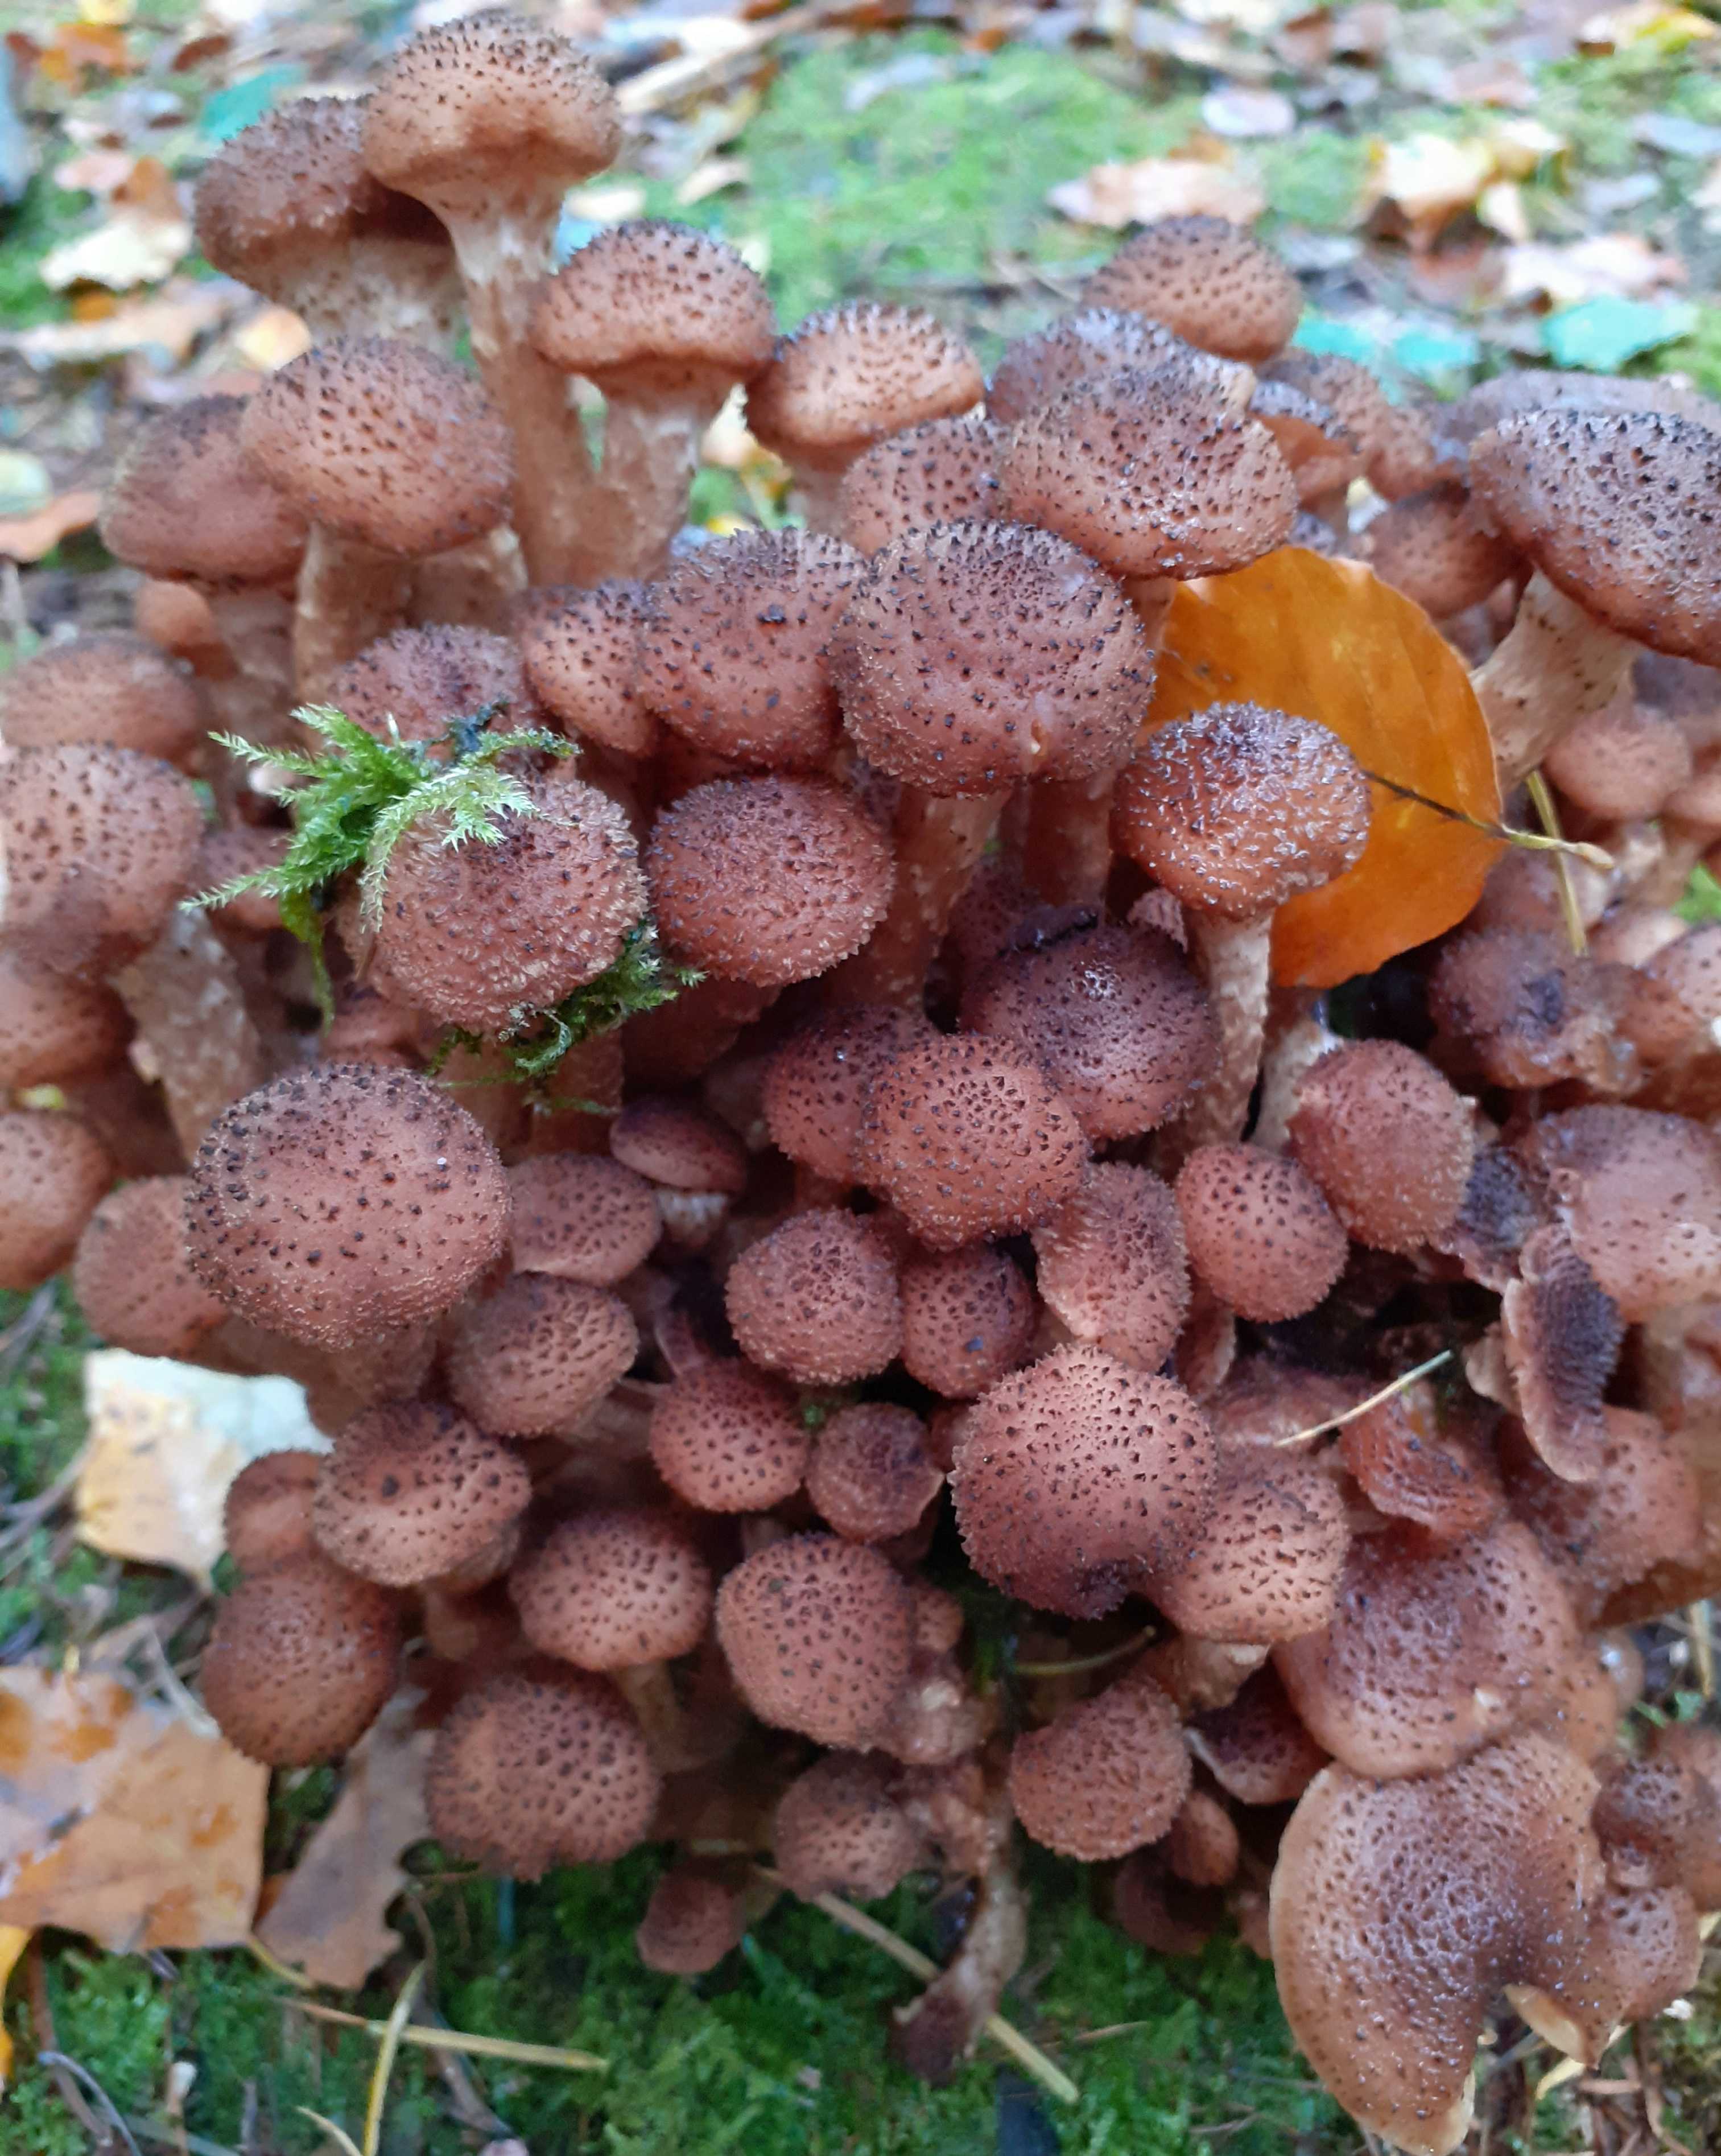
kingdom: Fungi
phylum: Basidiomycota
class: Agaricomycetes
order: Agaricales
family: Physalacriaceae
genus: Armillaria
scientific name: Armillaria ostoyae
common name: mørk honningsvamp
